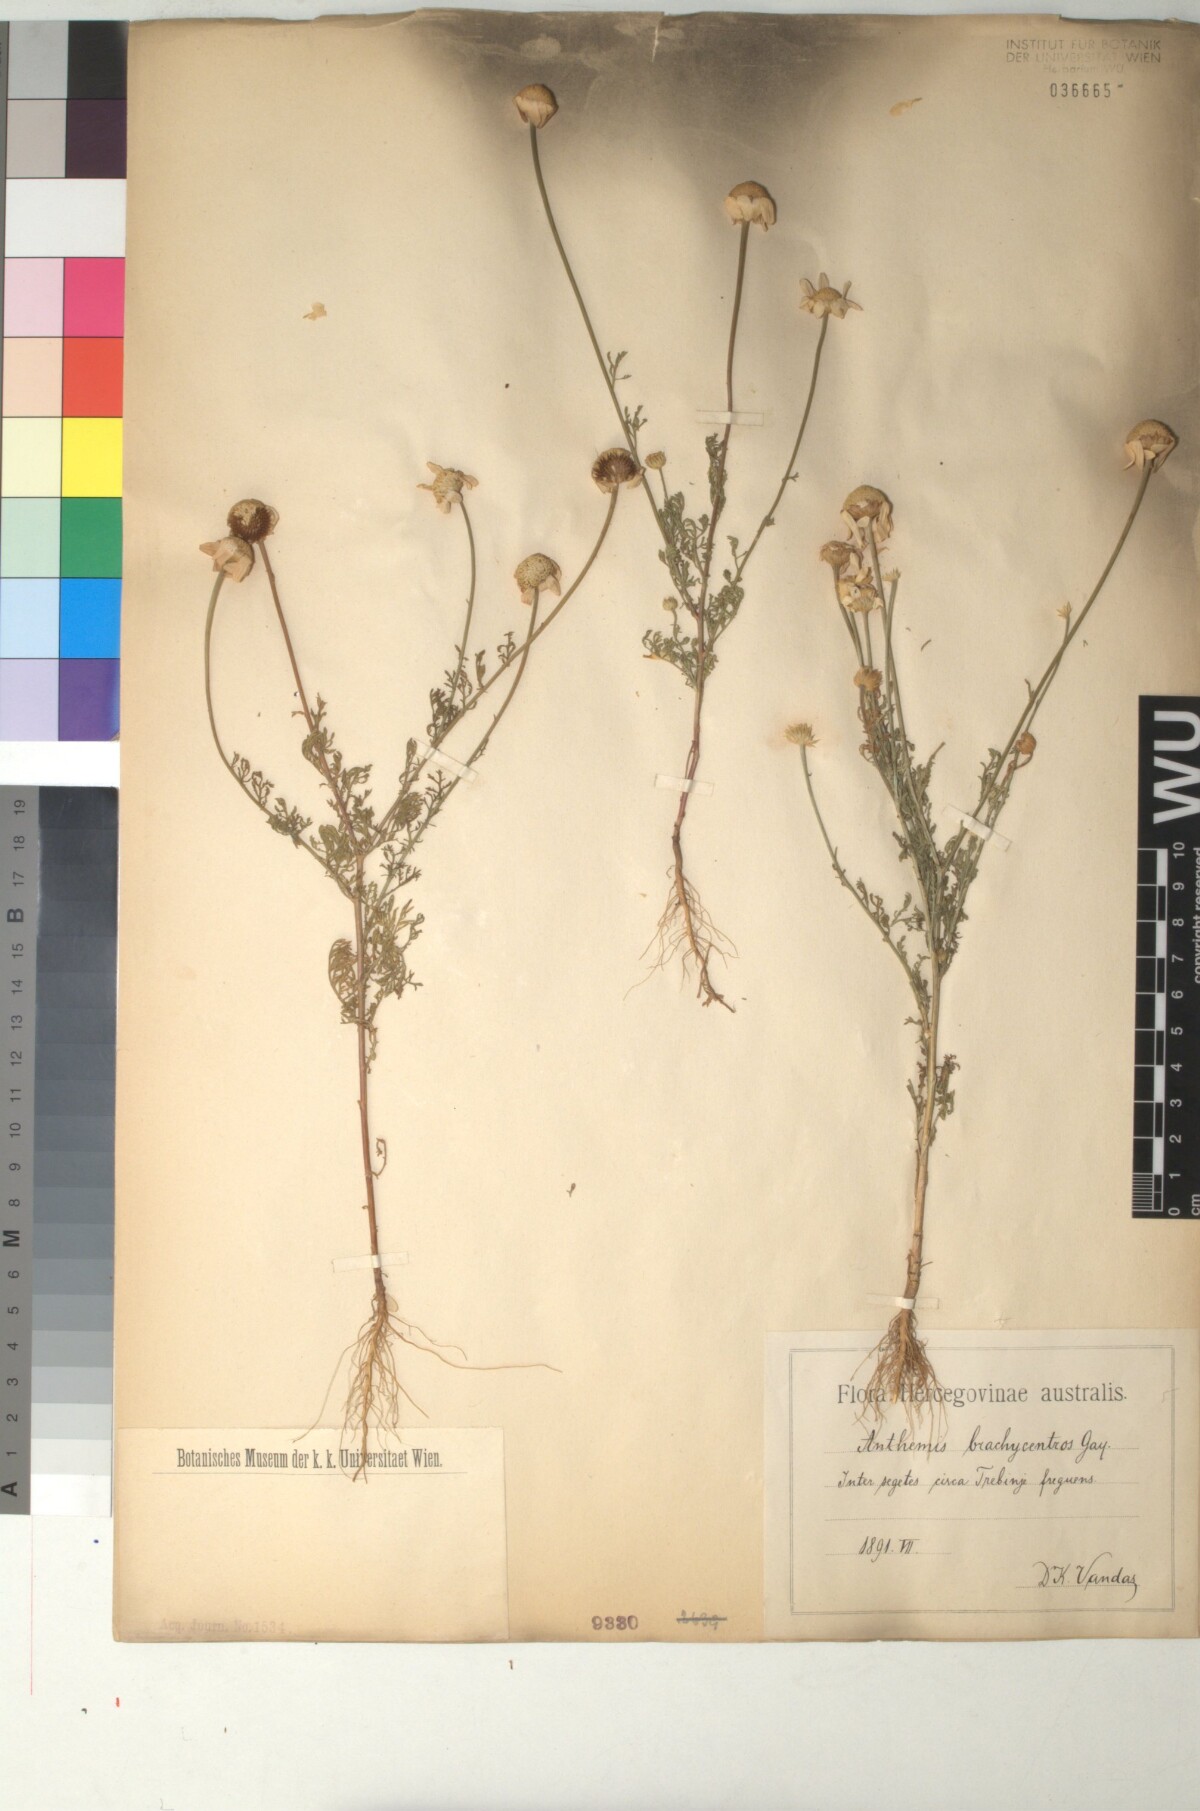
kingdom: Plantae
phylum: Tracheophyta
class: Magnoliopsida
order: Asterales
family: Asteraceae
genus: Cota
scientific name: Cota segetalis
